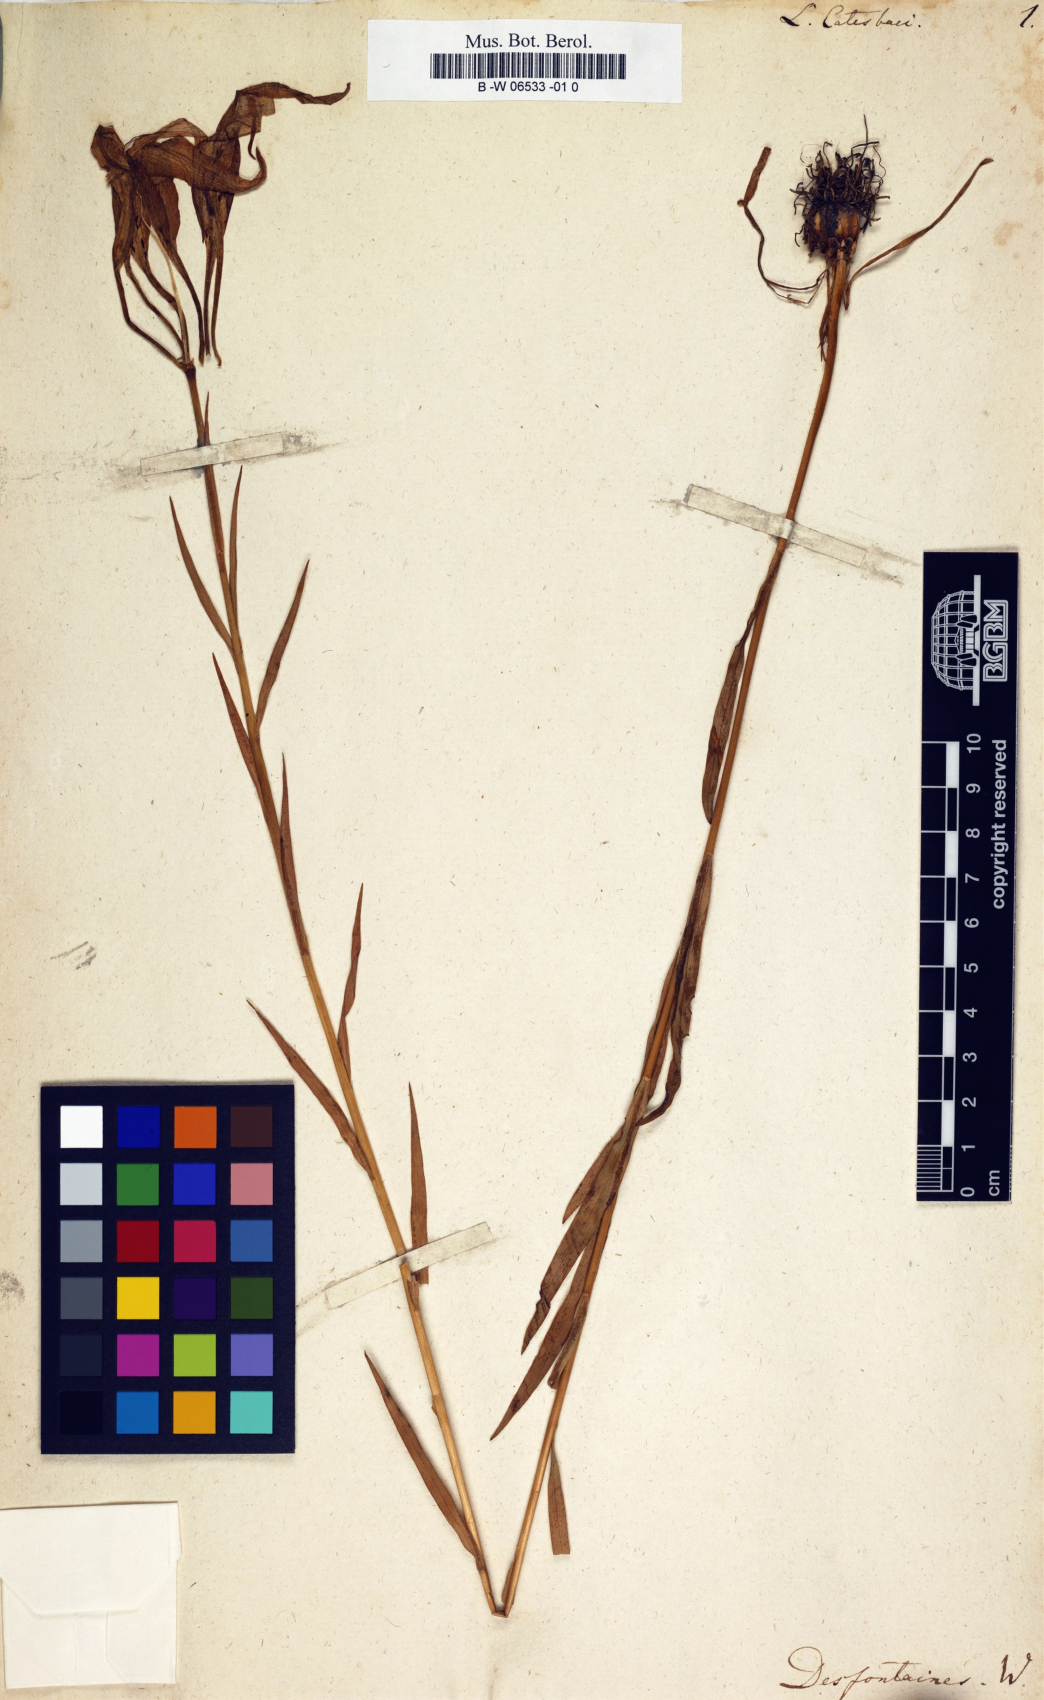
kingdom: Plantae
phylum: Tracheophyta
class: Liliopsida
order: Liliales
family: Liliaceae
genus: Lilium
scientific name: Lilium catesbaei
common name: Catesby's lily
